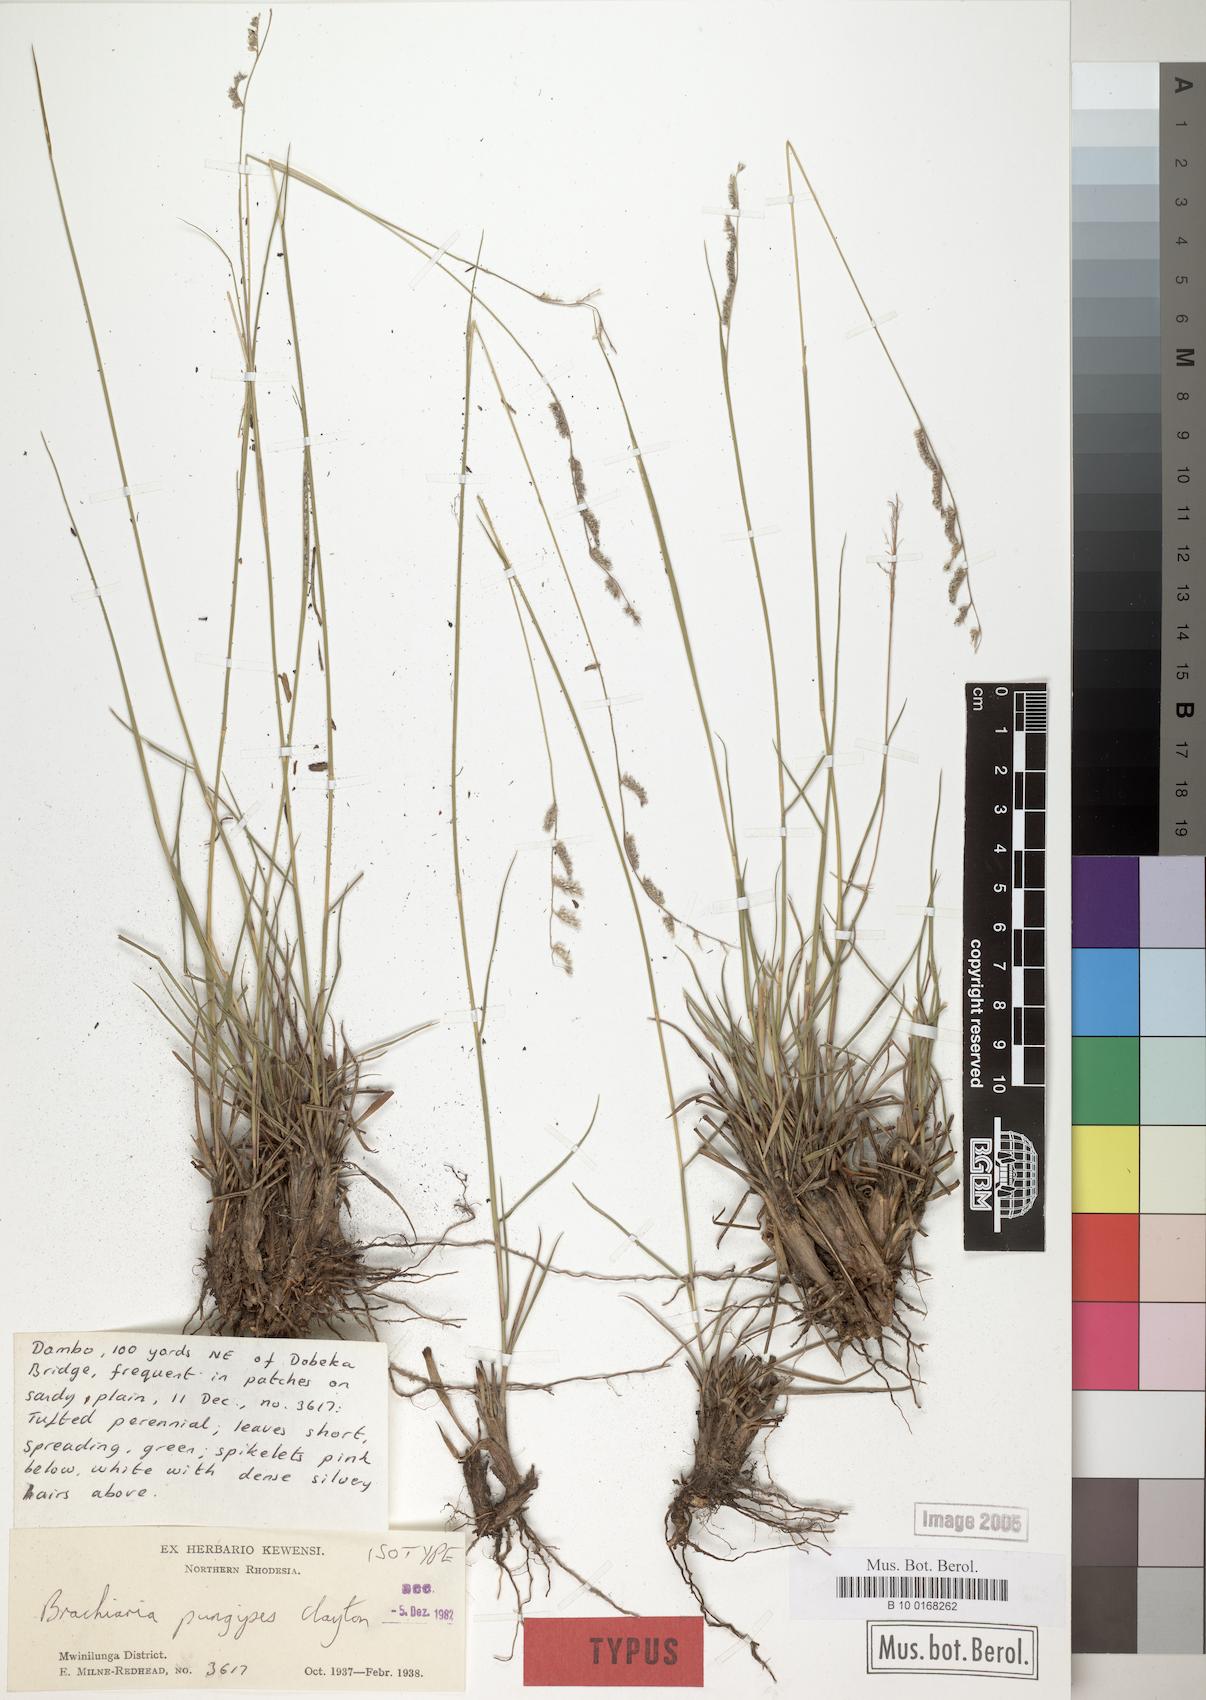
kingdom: Plantae
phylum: Tracheophyta
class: Liliopsida
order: Poales
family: Poaceae
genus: Urochloa
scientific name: Urochloa Brachiaria pungipes
